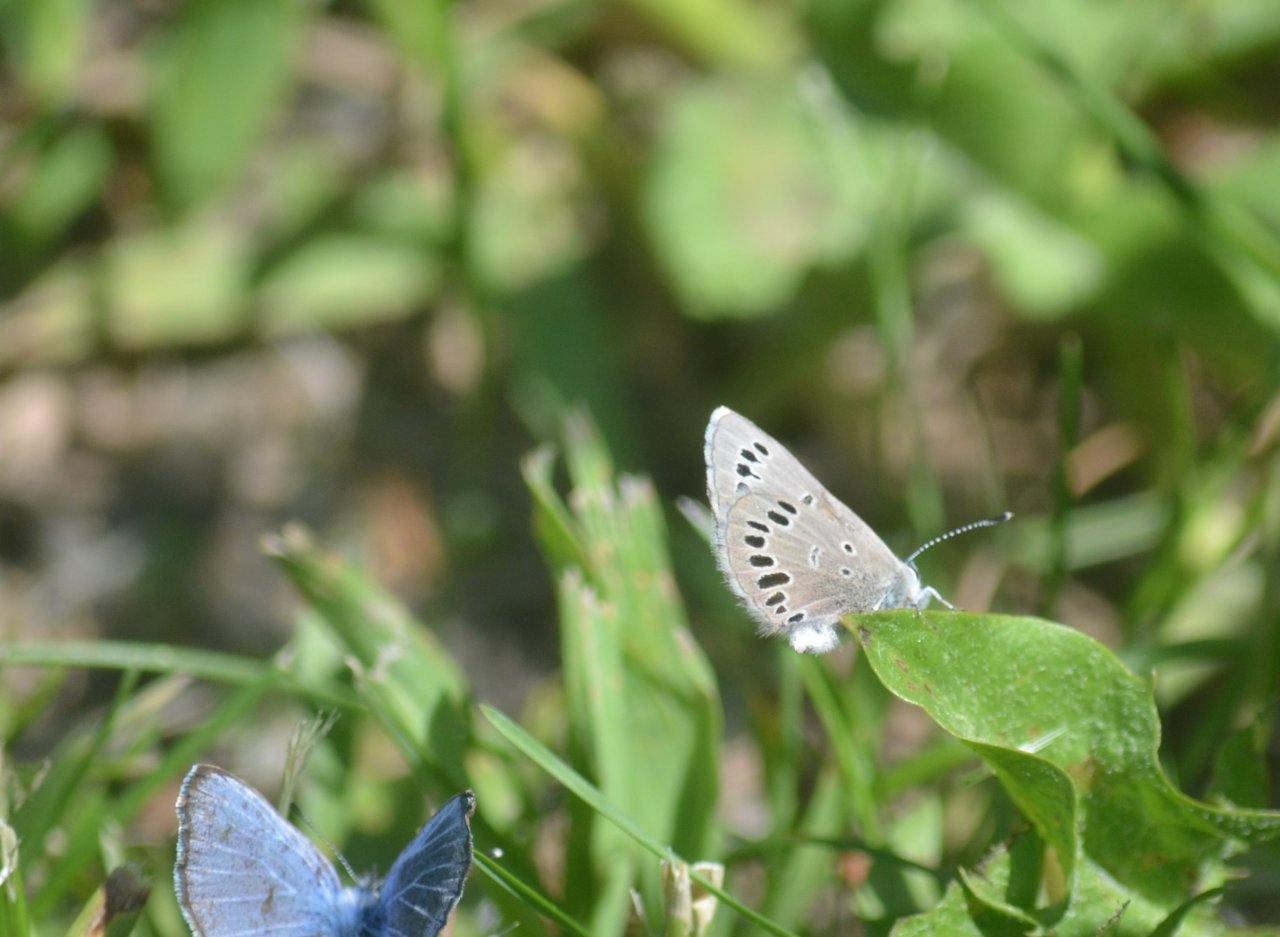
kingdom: Animalia
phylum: Arthropoda
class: Insecta
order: Lepidoptera
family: Lycaenidae
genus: Glaucopsyche
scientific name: Glaucopsyche lygdamus
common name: Silvery Blue
